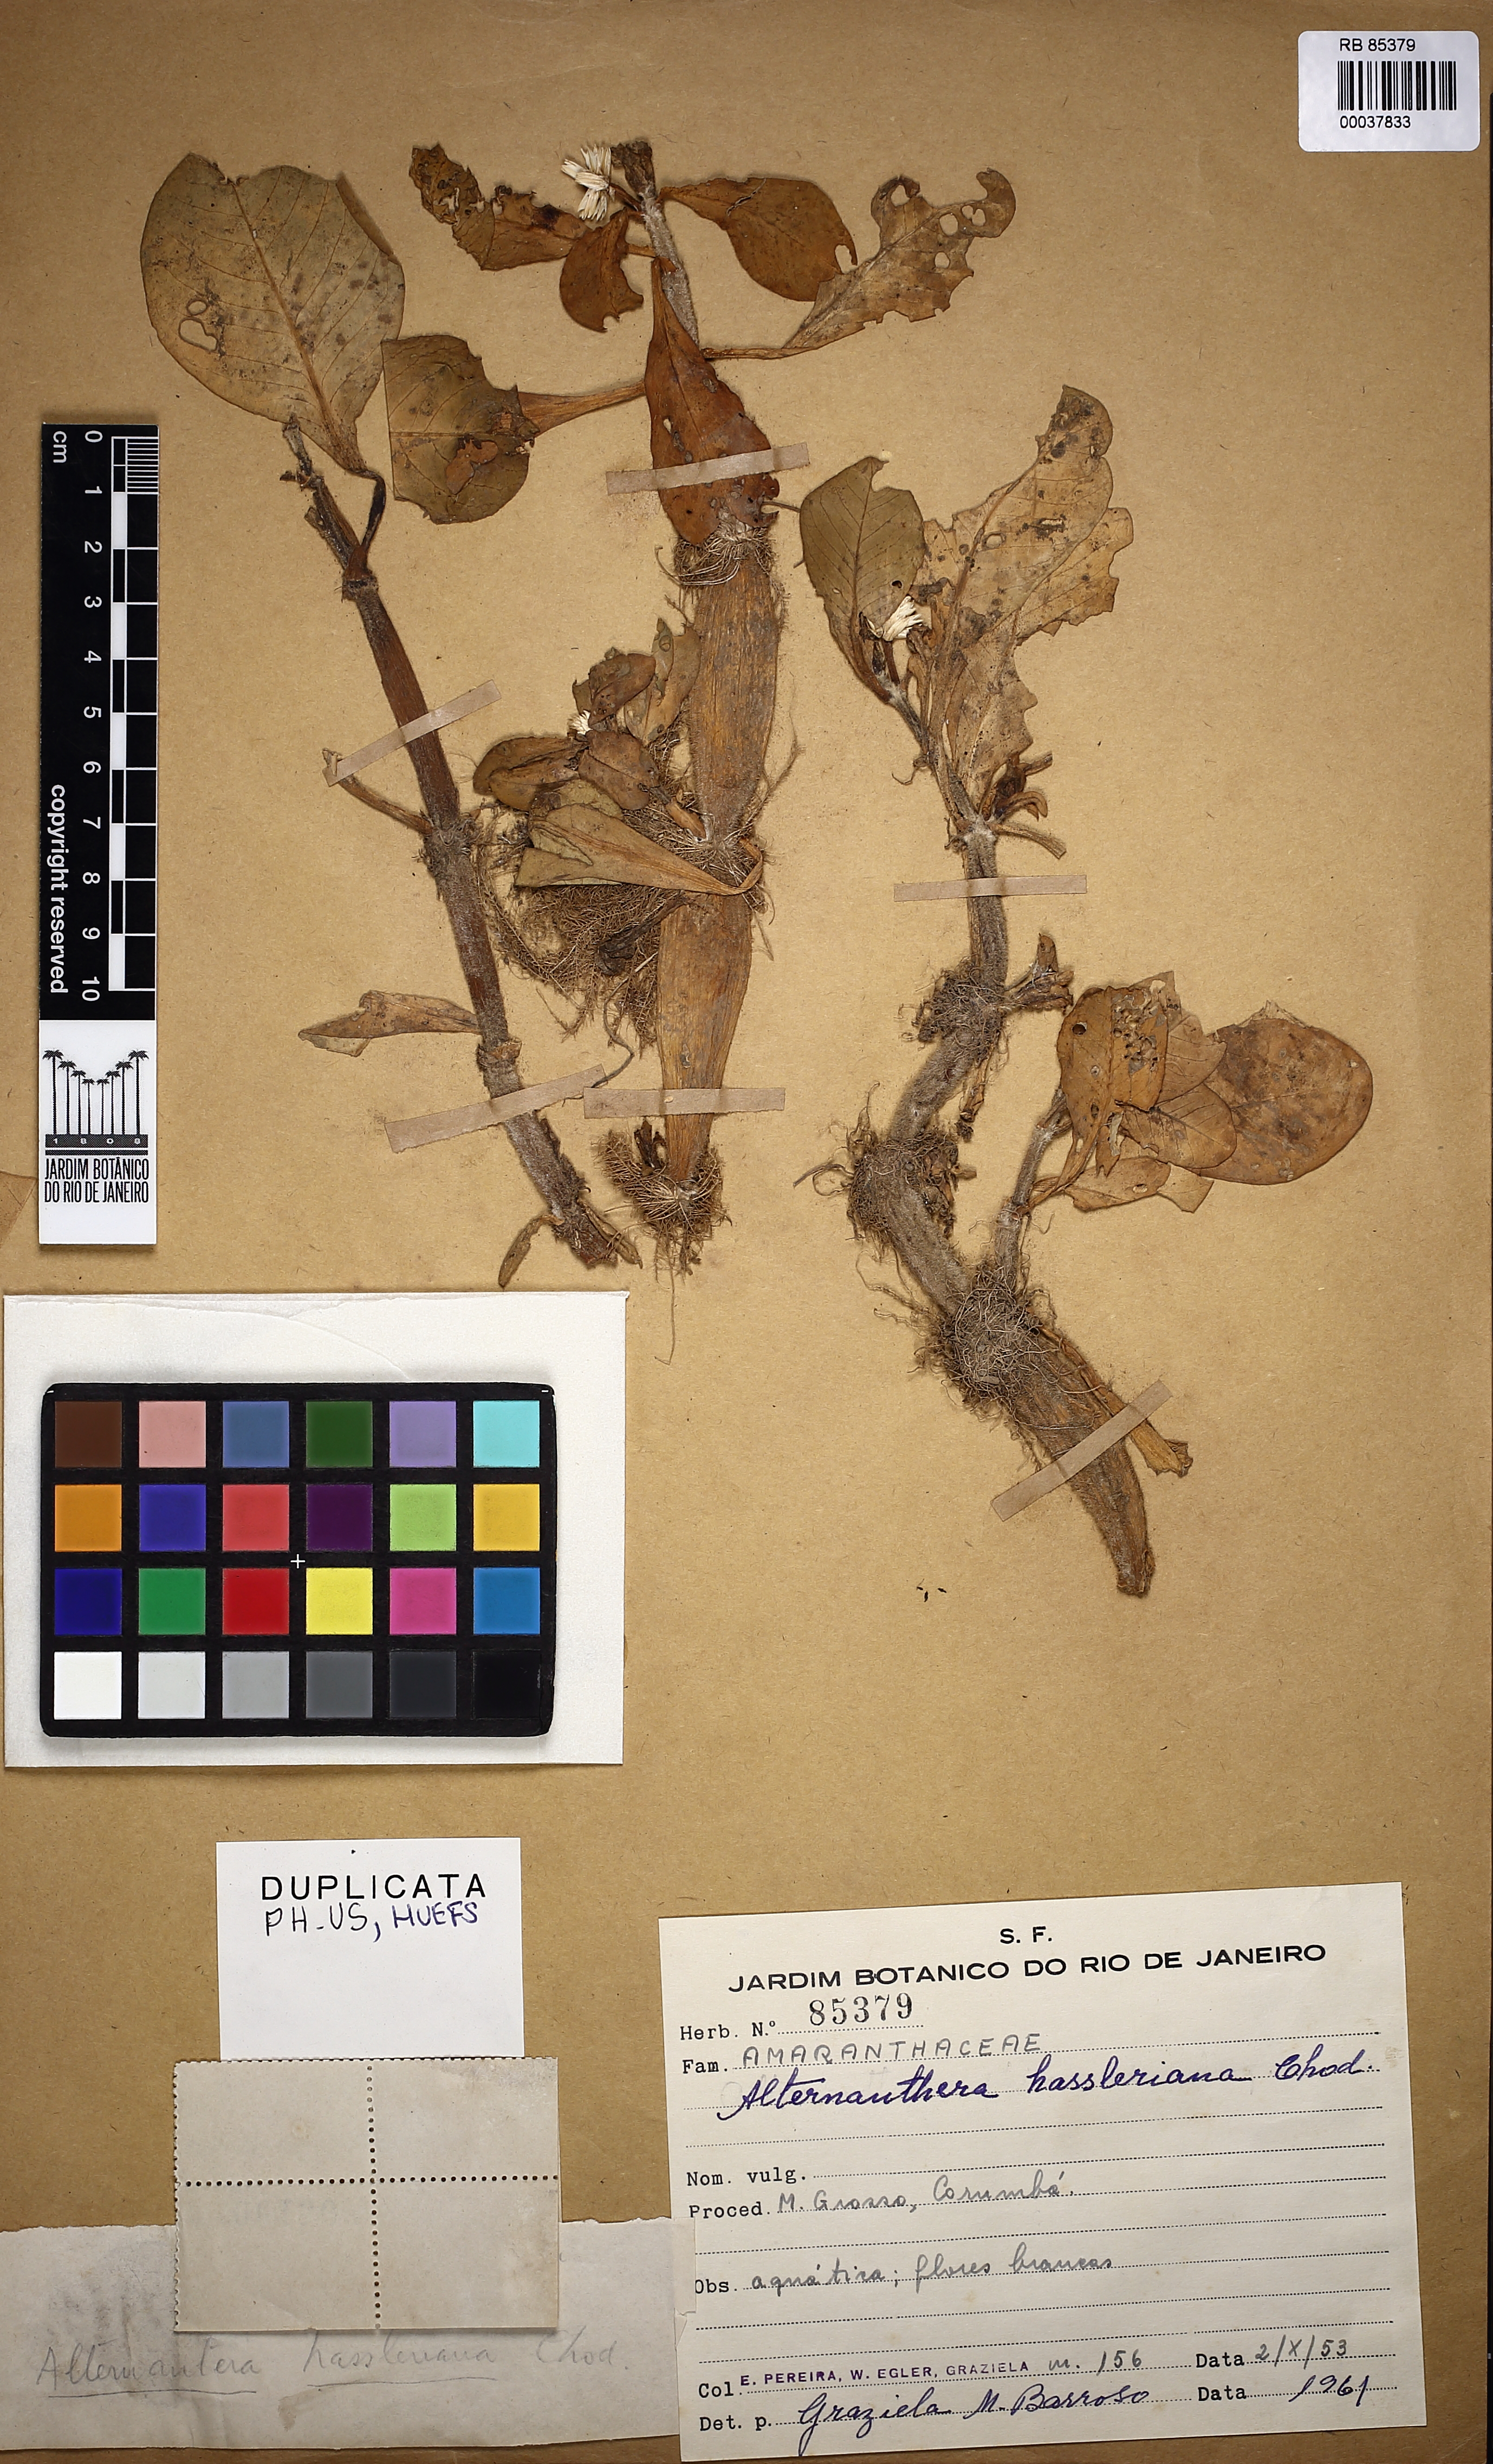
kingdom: Plantae
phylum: Tracheophyta
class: Magnoliopsida
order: Caryophyllales
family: Amaranthaceae
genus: Alternanthera
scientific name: Alternanthera aquatica
